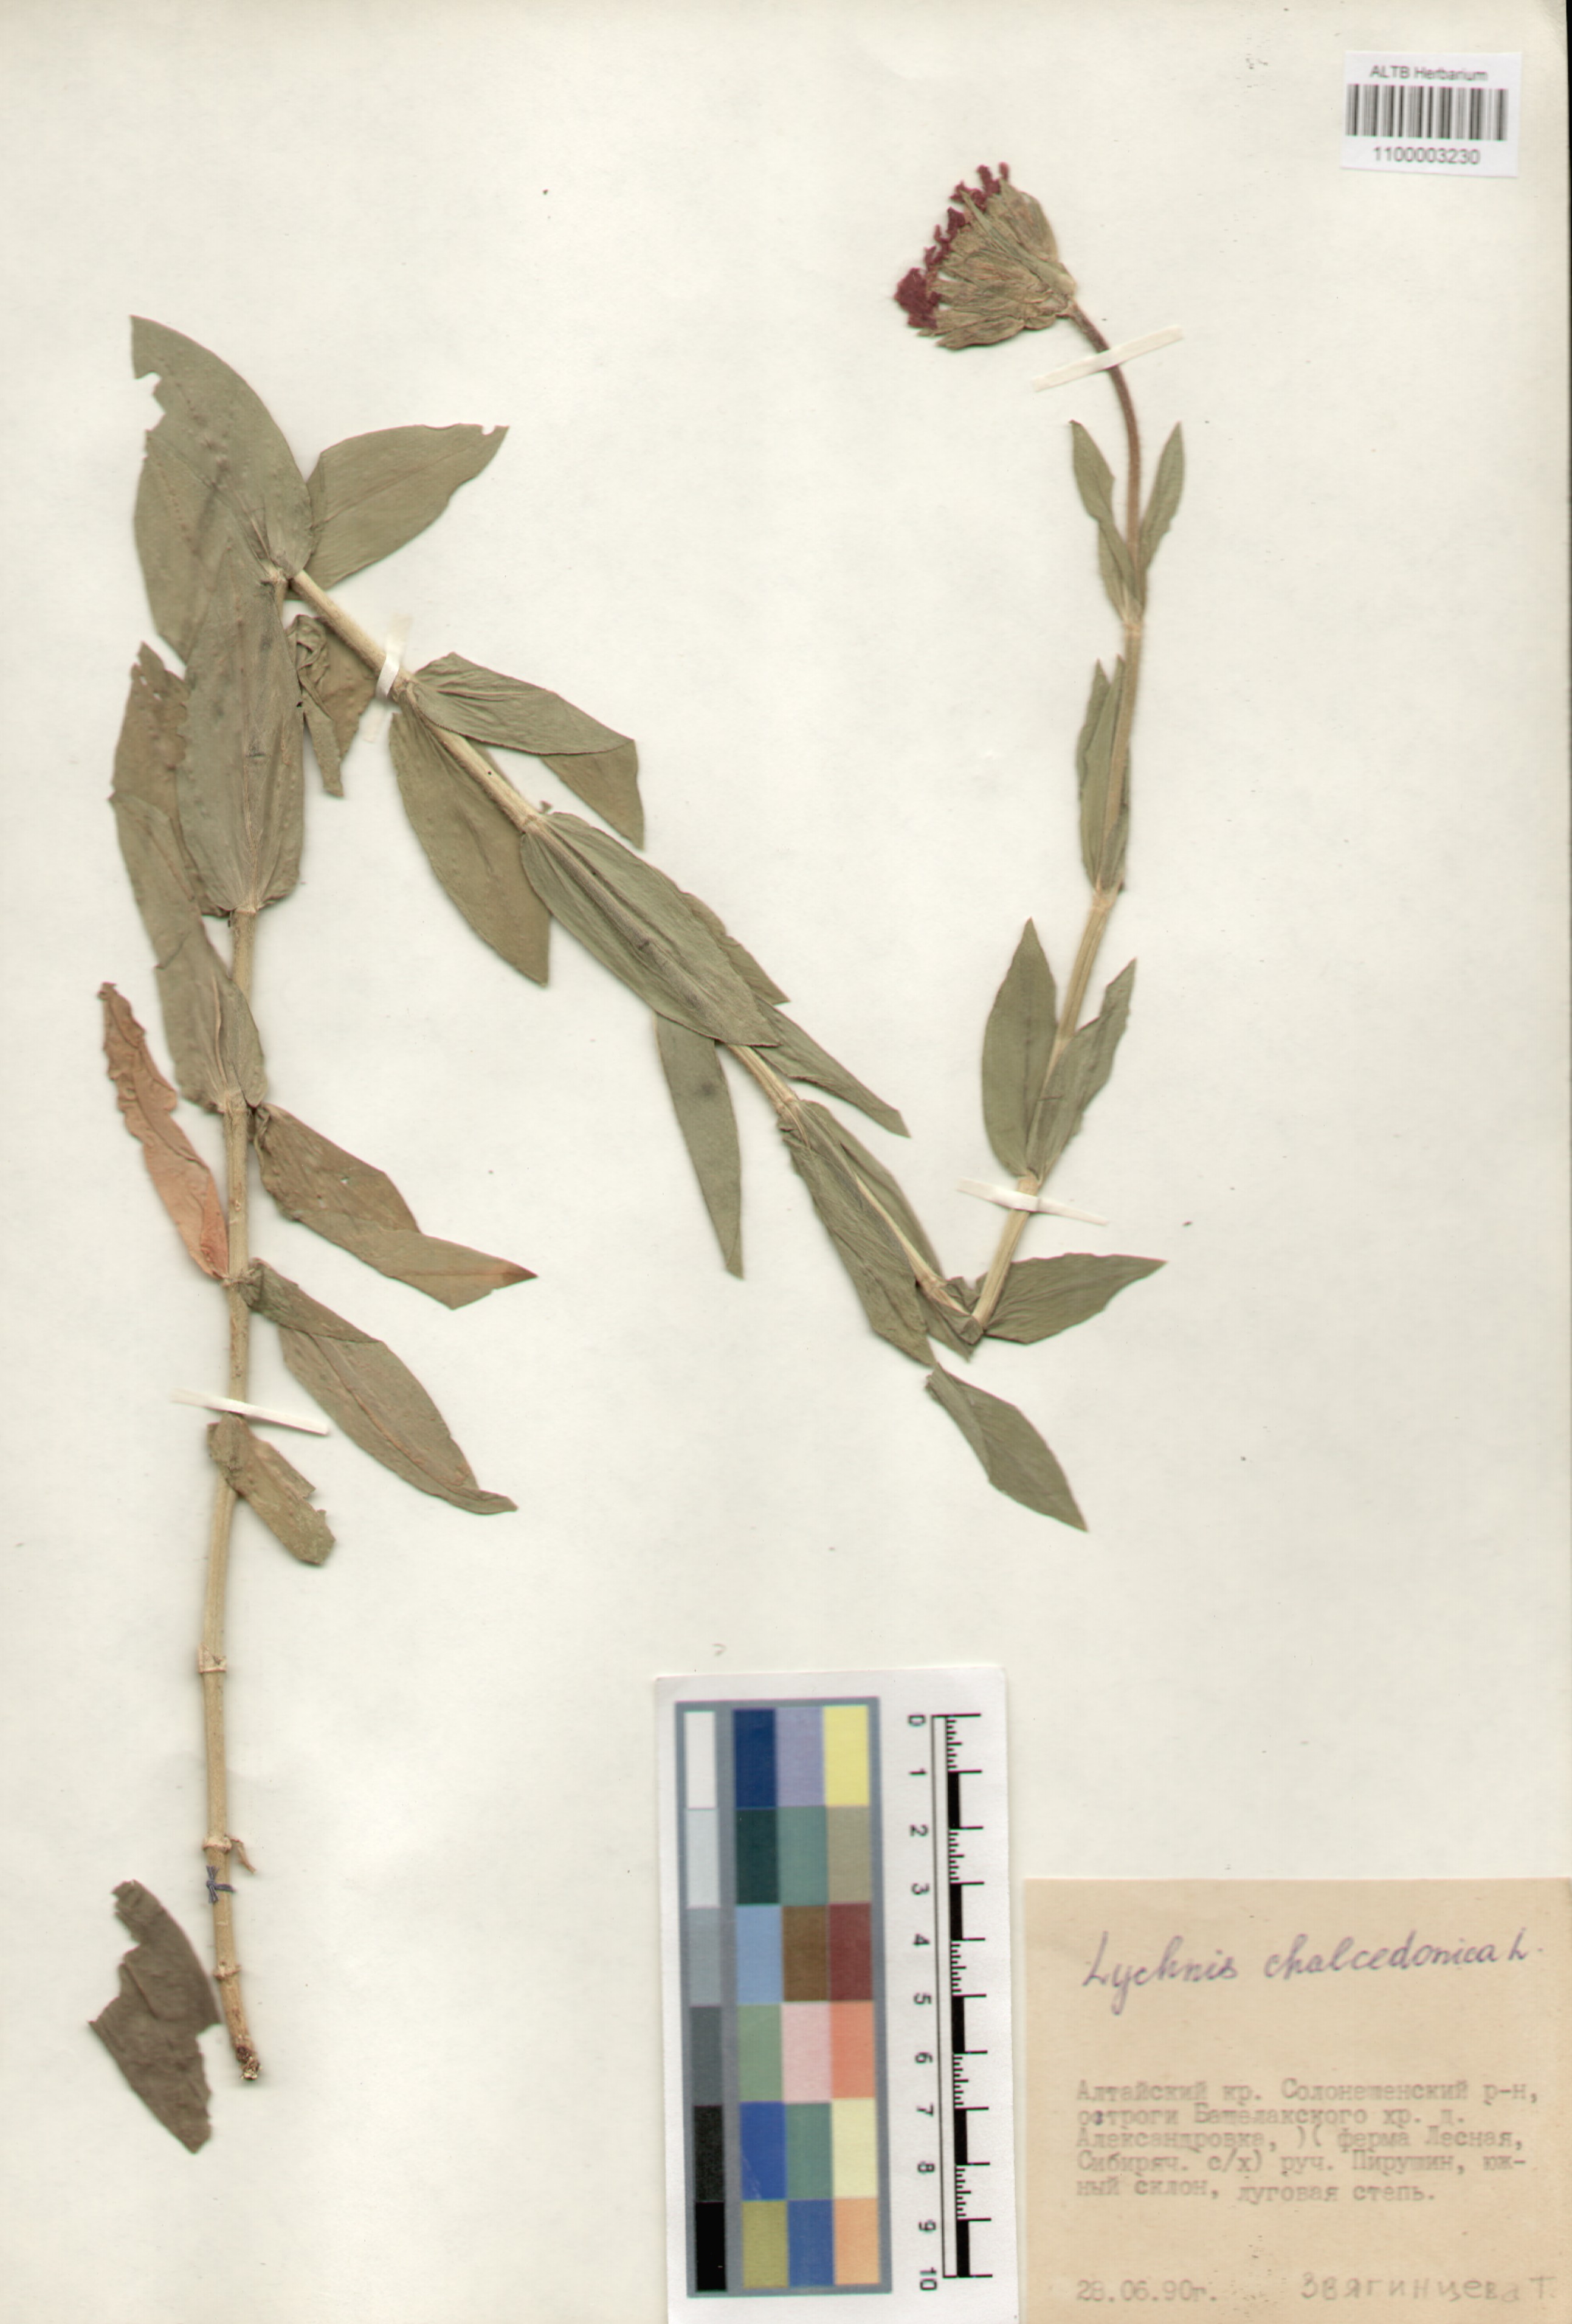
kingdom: Plantae
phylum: Tracheophyta
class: Magnoliopsida
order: Caryophyllales
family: Caryophyllaceae
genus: Silene
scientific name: Silene chalcedonica
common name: Maltese-cross
